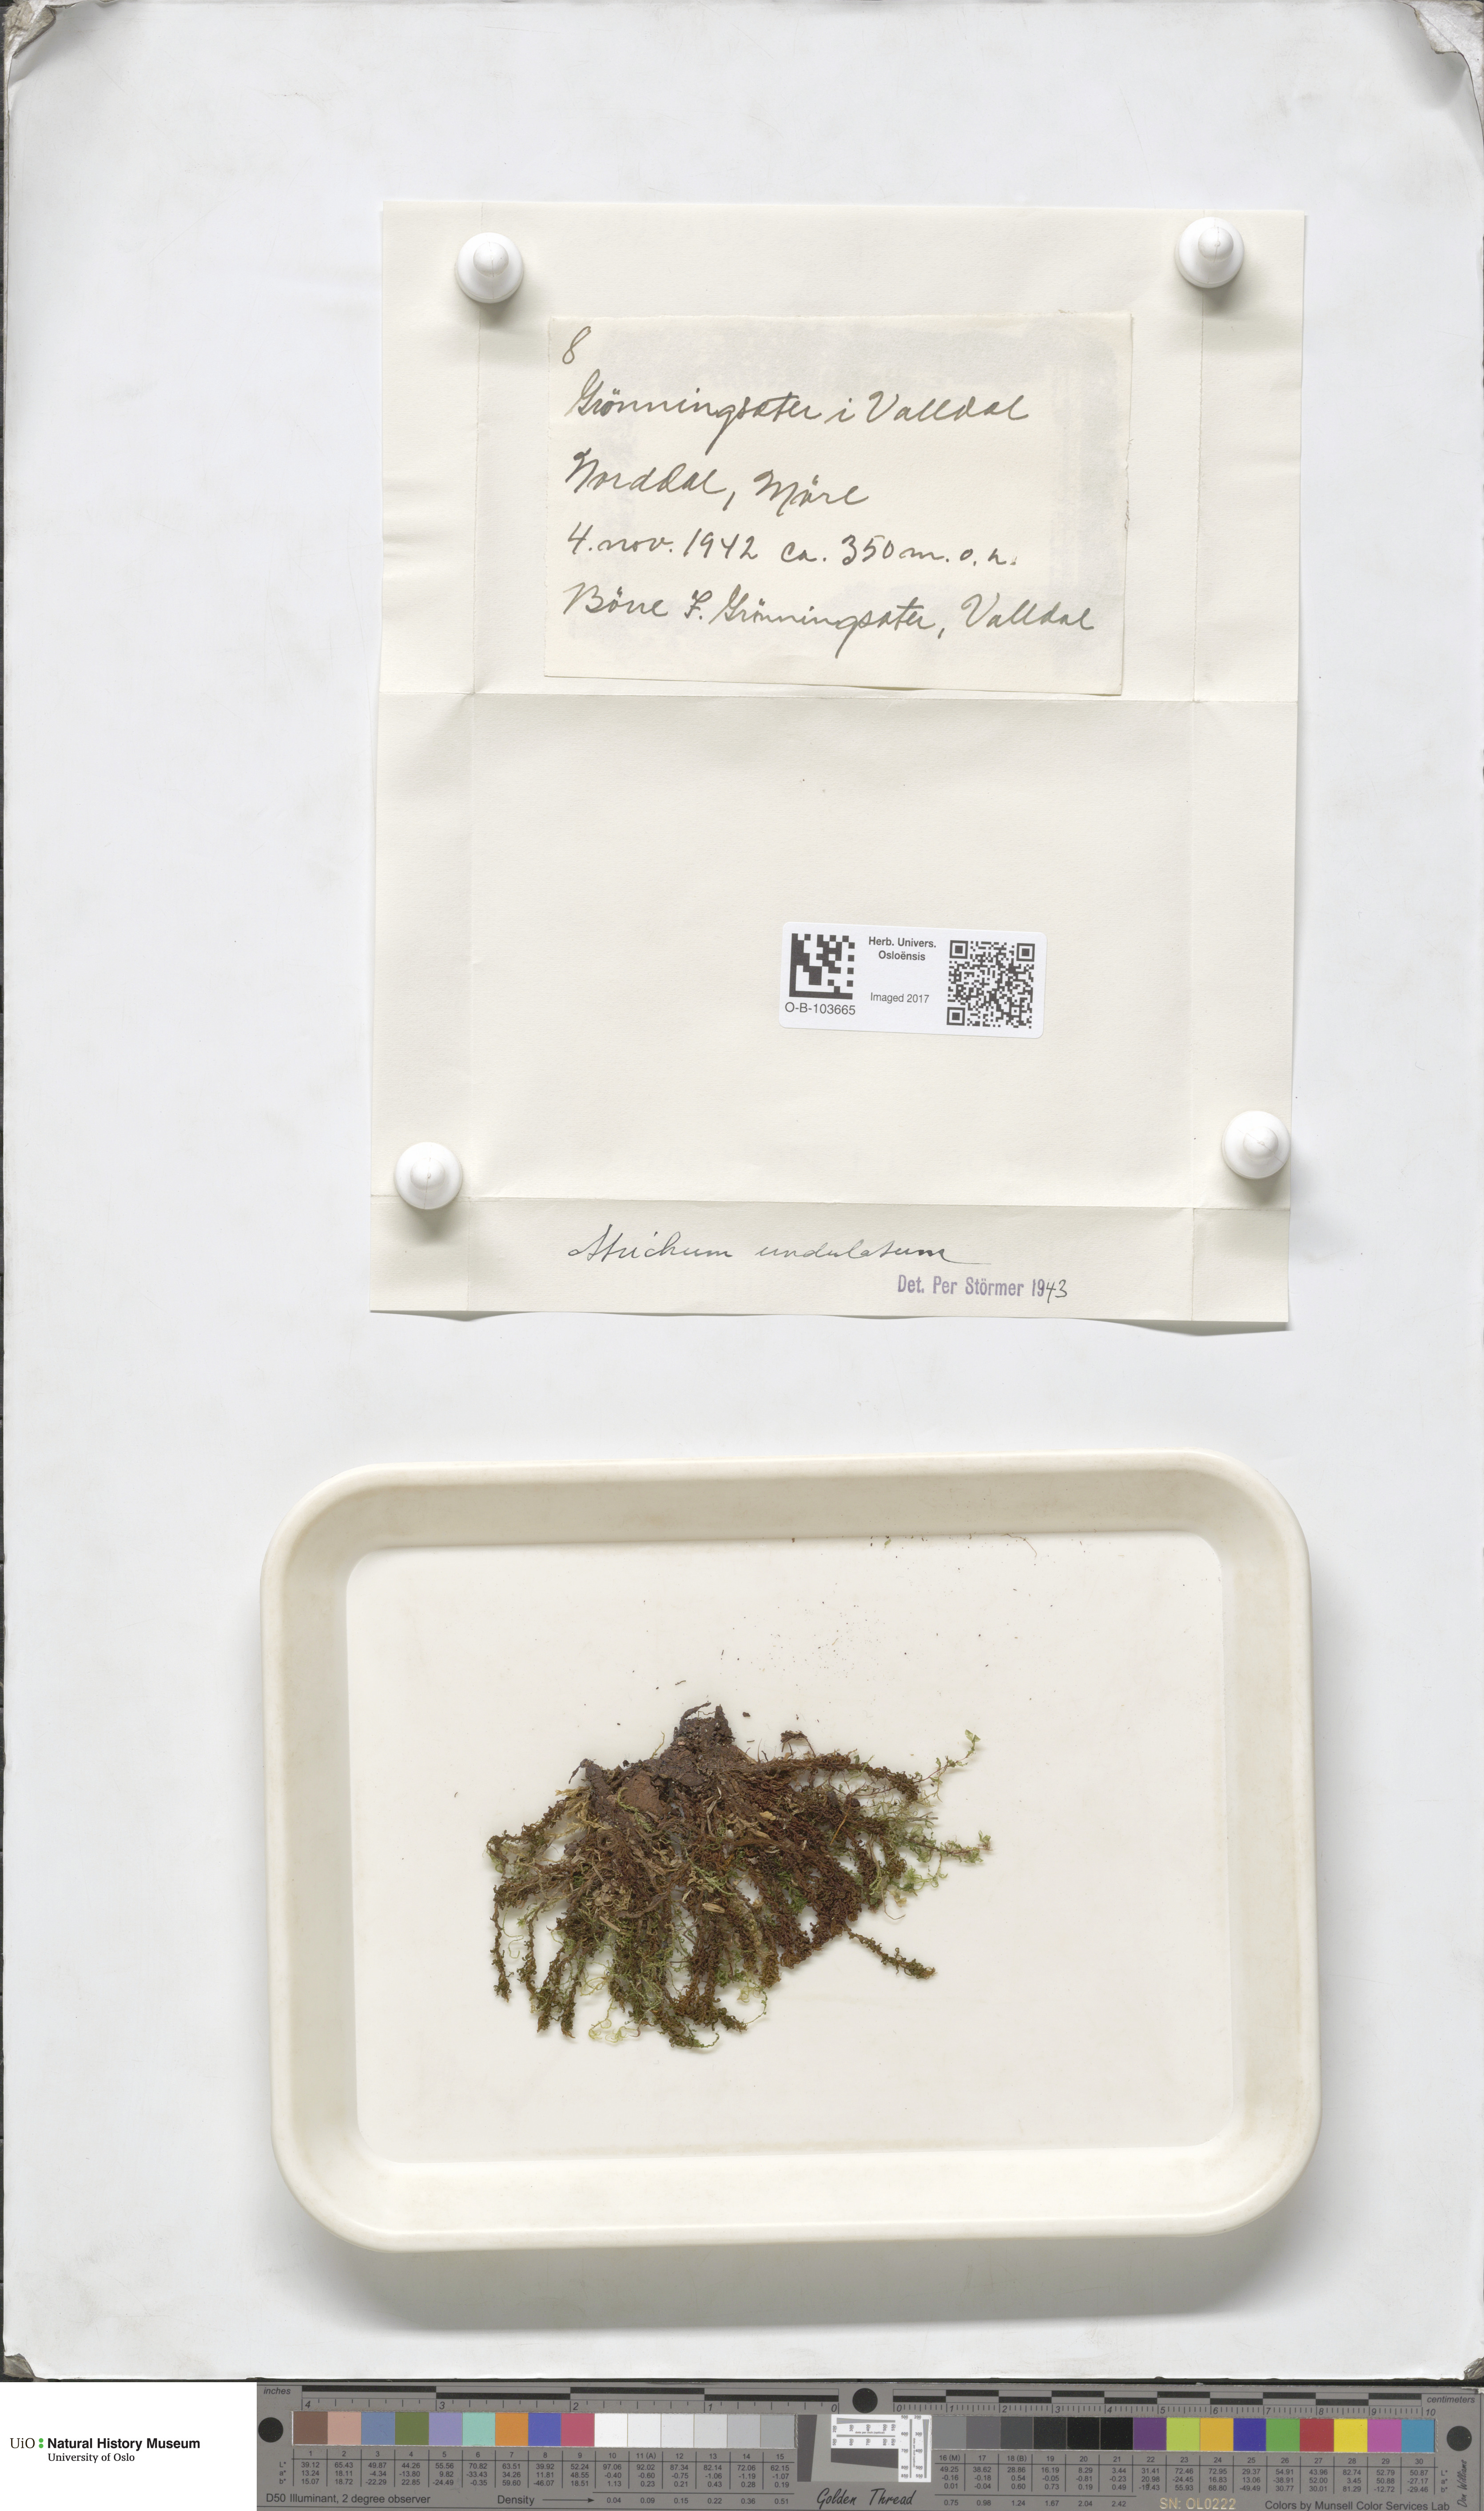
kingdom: Plantae
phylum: Bryophyta
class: Polytrichopsida
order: Polytrichales
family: Polytrichaceae
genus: Atrichum
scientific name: Atrichum undulatum
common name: Common smoothcap
